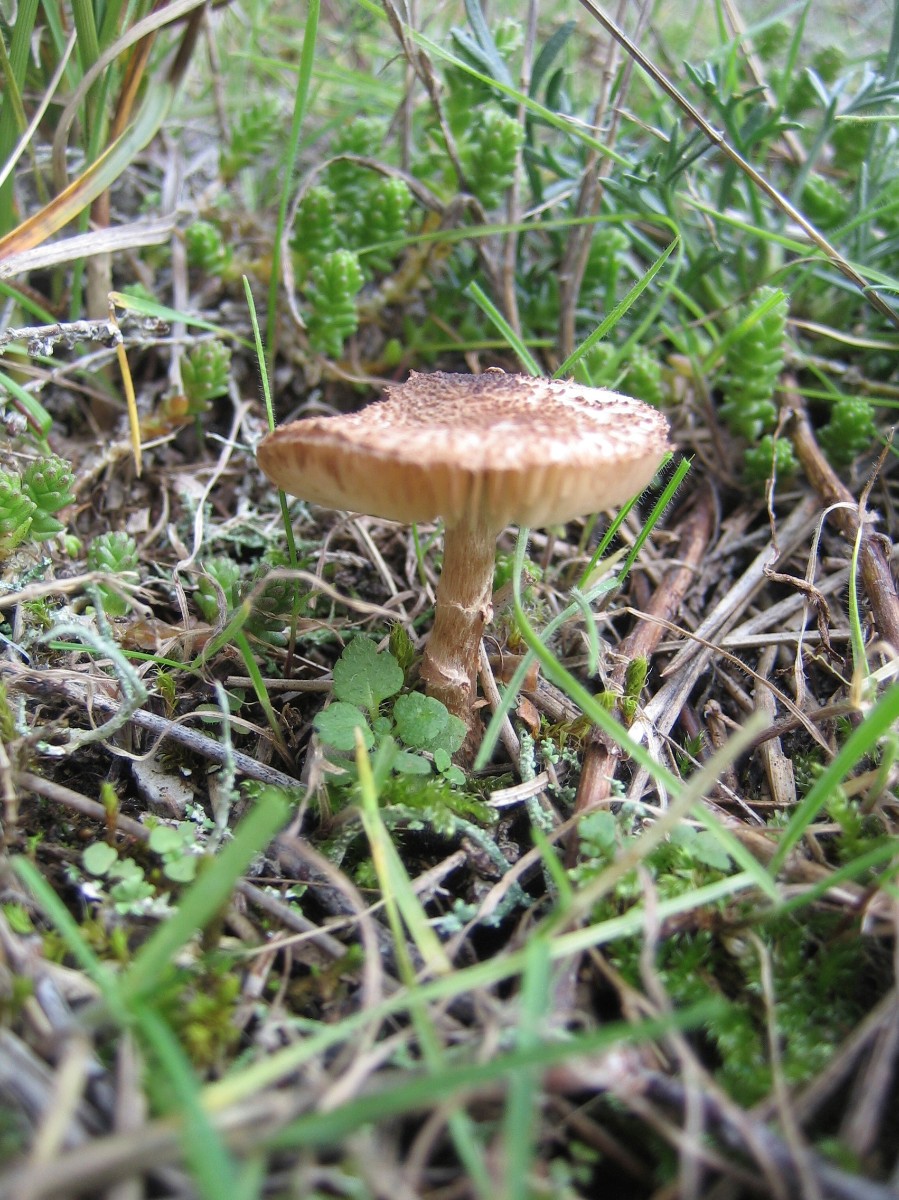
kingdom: Fungi
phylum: Basidiomycota
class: Agaricomycetes
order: Agaricales
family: Agaricaceae
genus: Lepiota
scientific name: Lepiota pseudolilacea
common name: gråbrun parasolhat
